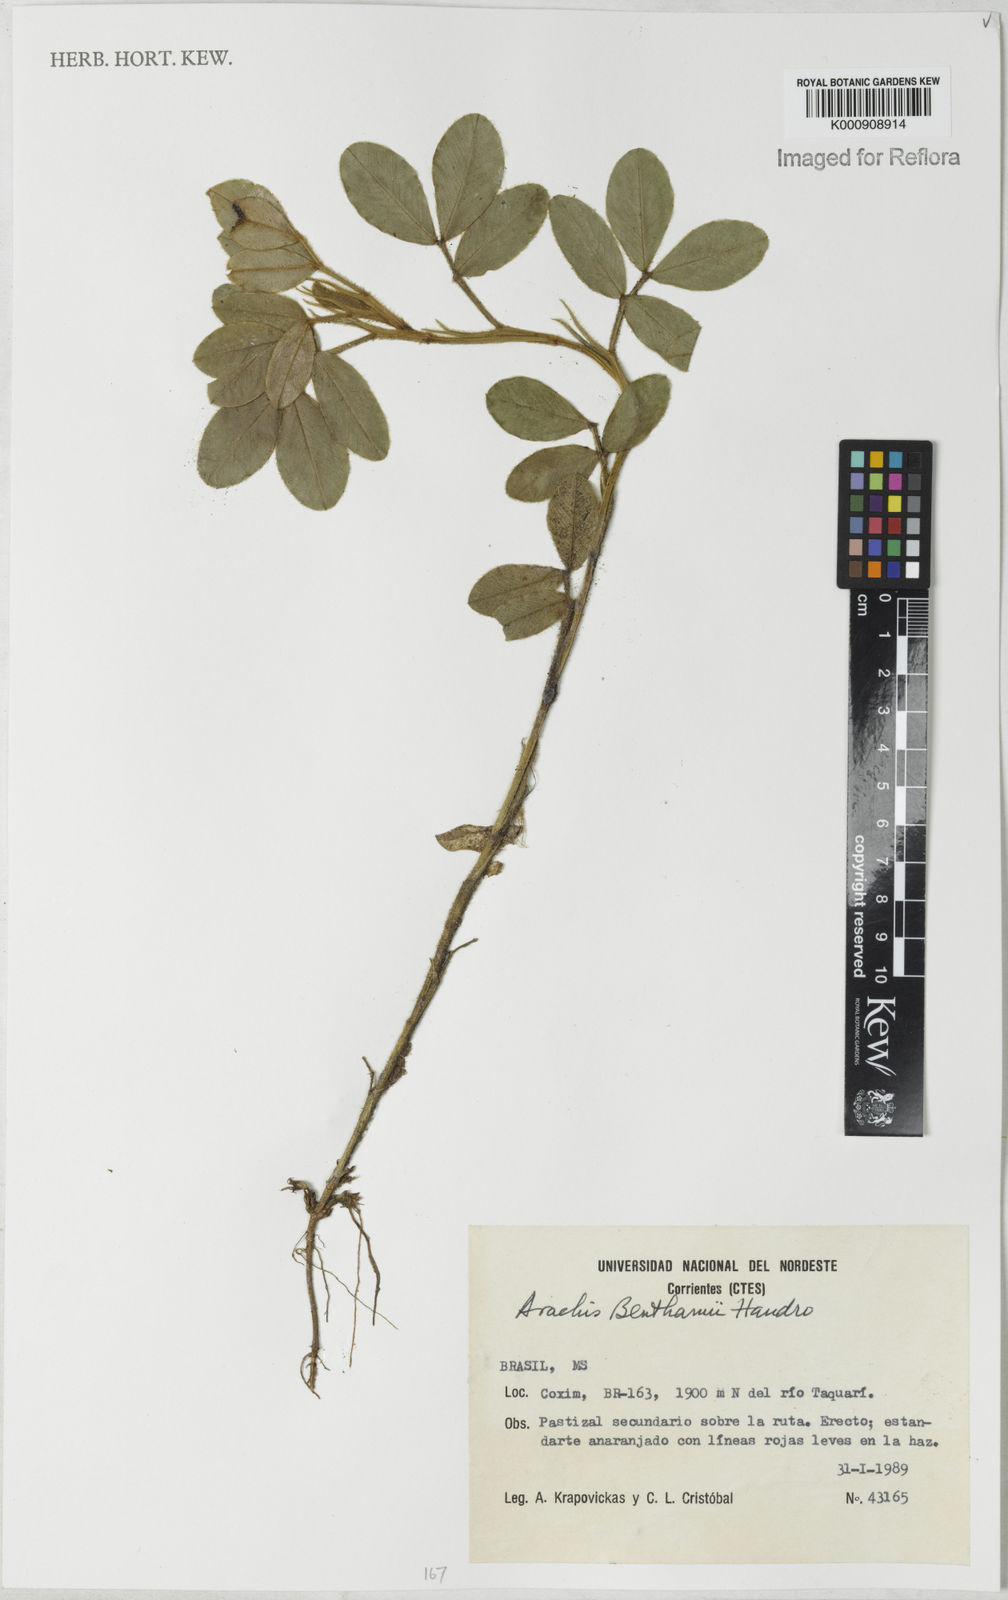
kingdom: Plantae
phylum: Tracheophyta
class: Magnoliopsida
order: Fabales
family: Fabaceae
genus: Arachis
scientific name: Arachis benthamii
